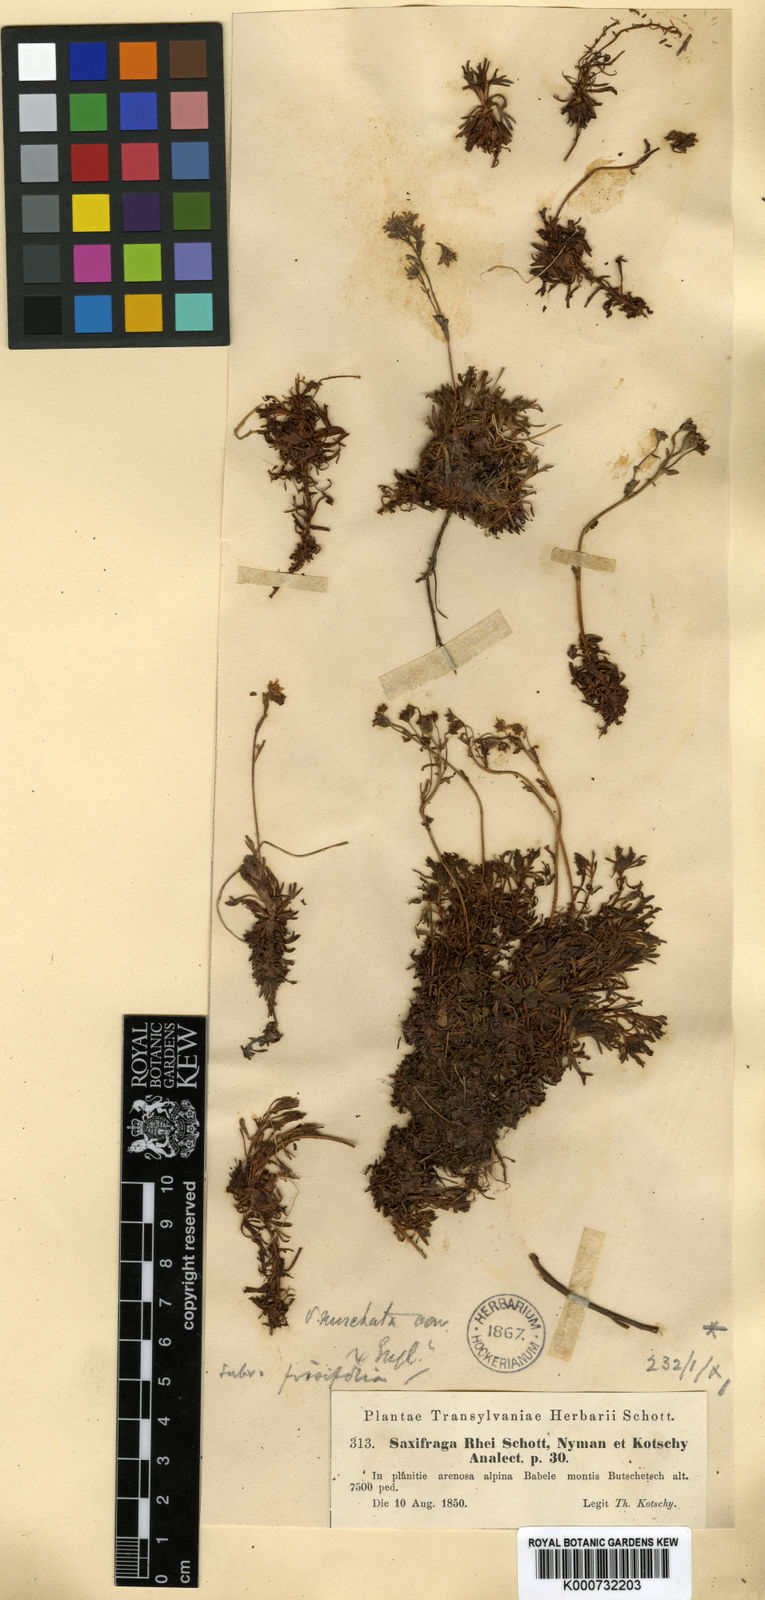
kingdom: Plantae
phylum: Tracheophyta
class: Magnoliopsida
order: Saxifragales
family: Saxifragaceae
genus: Saxifraga
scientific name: Saxifraga moschata
